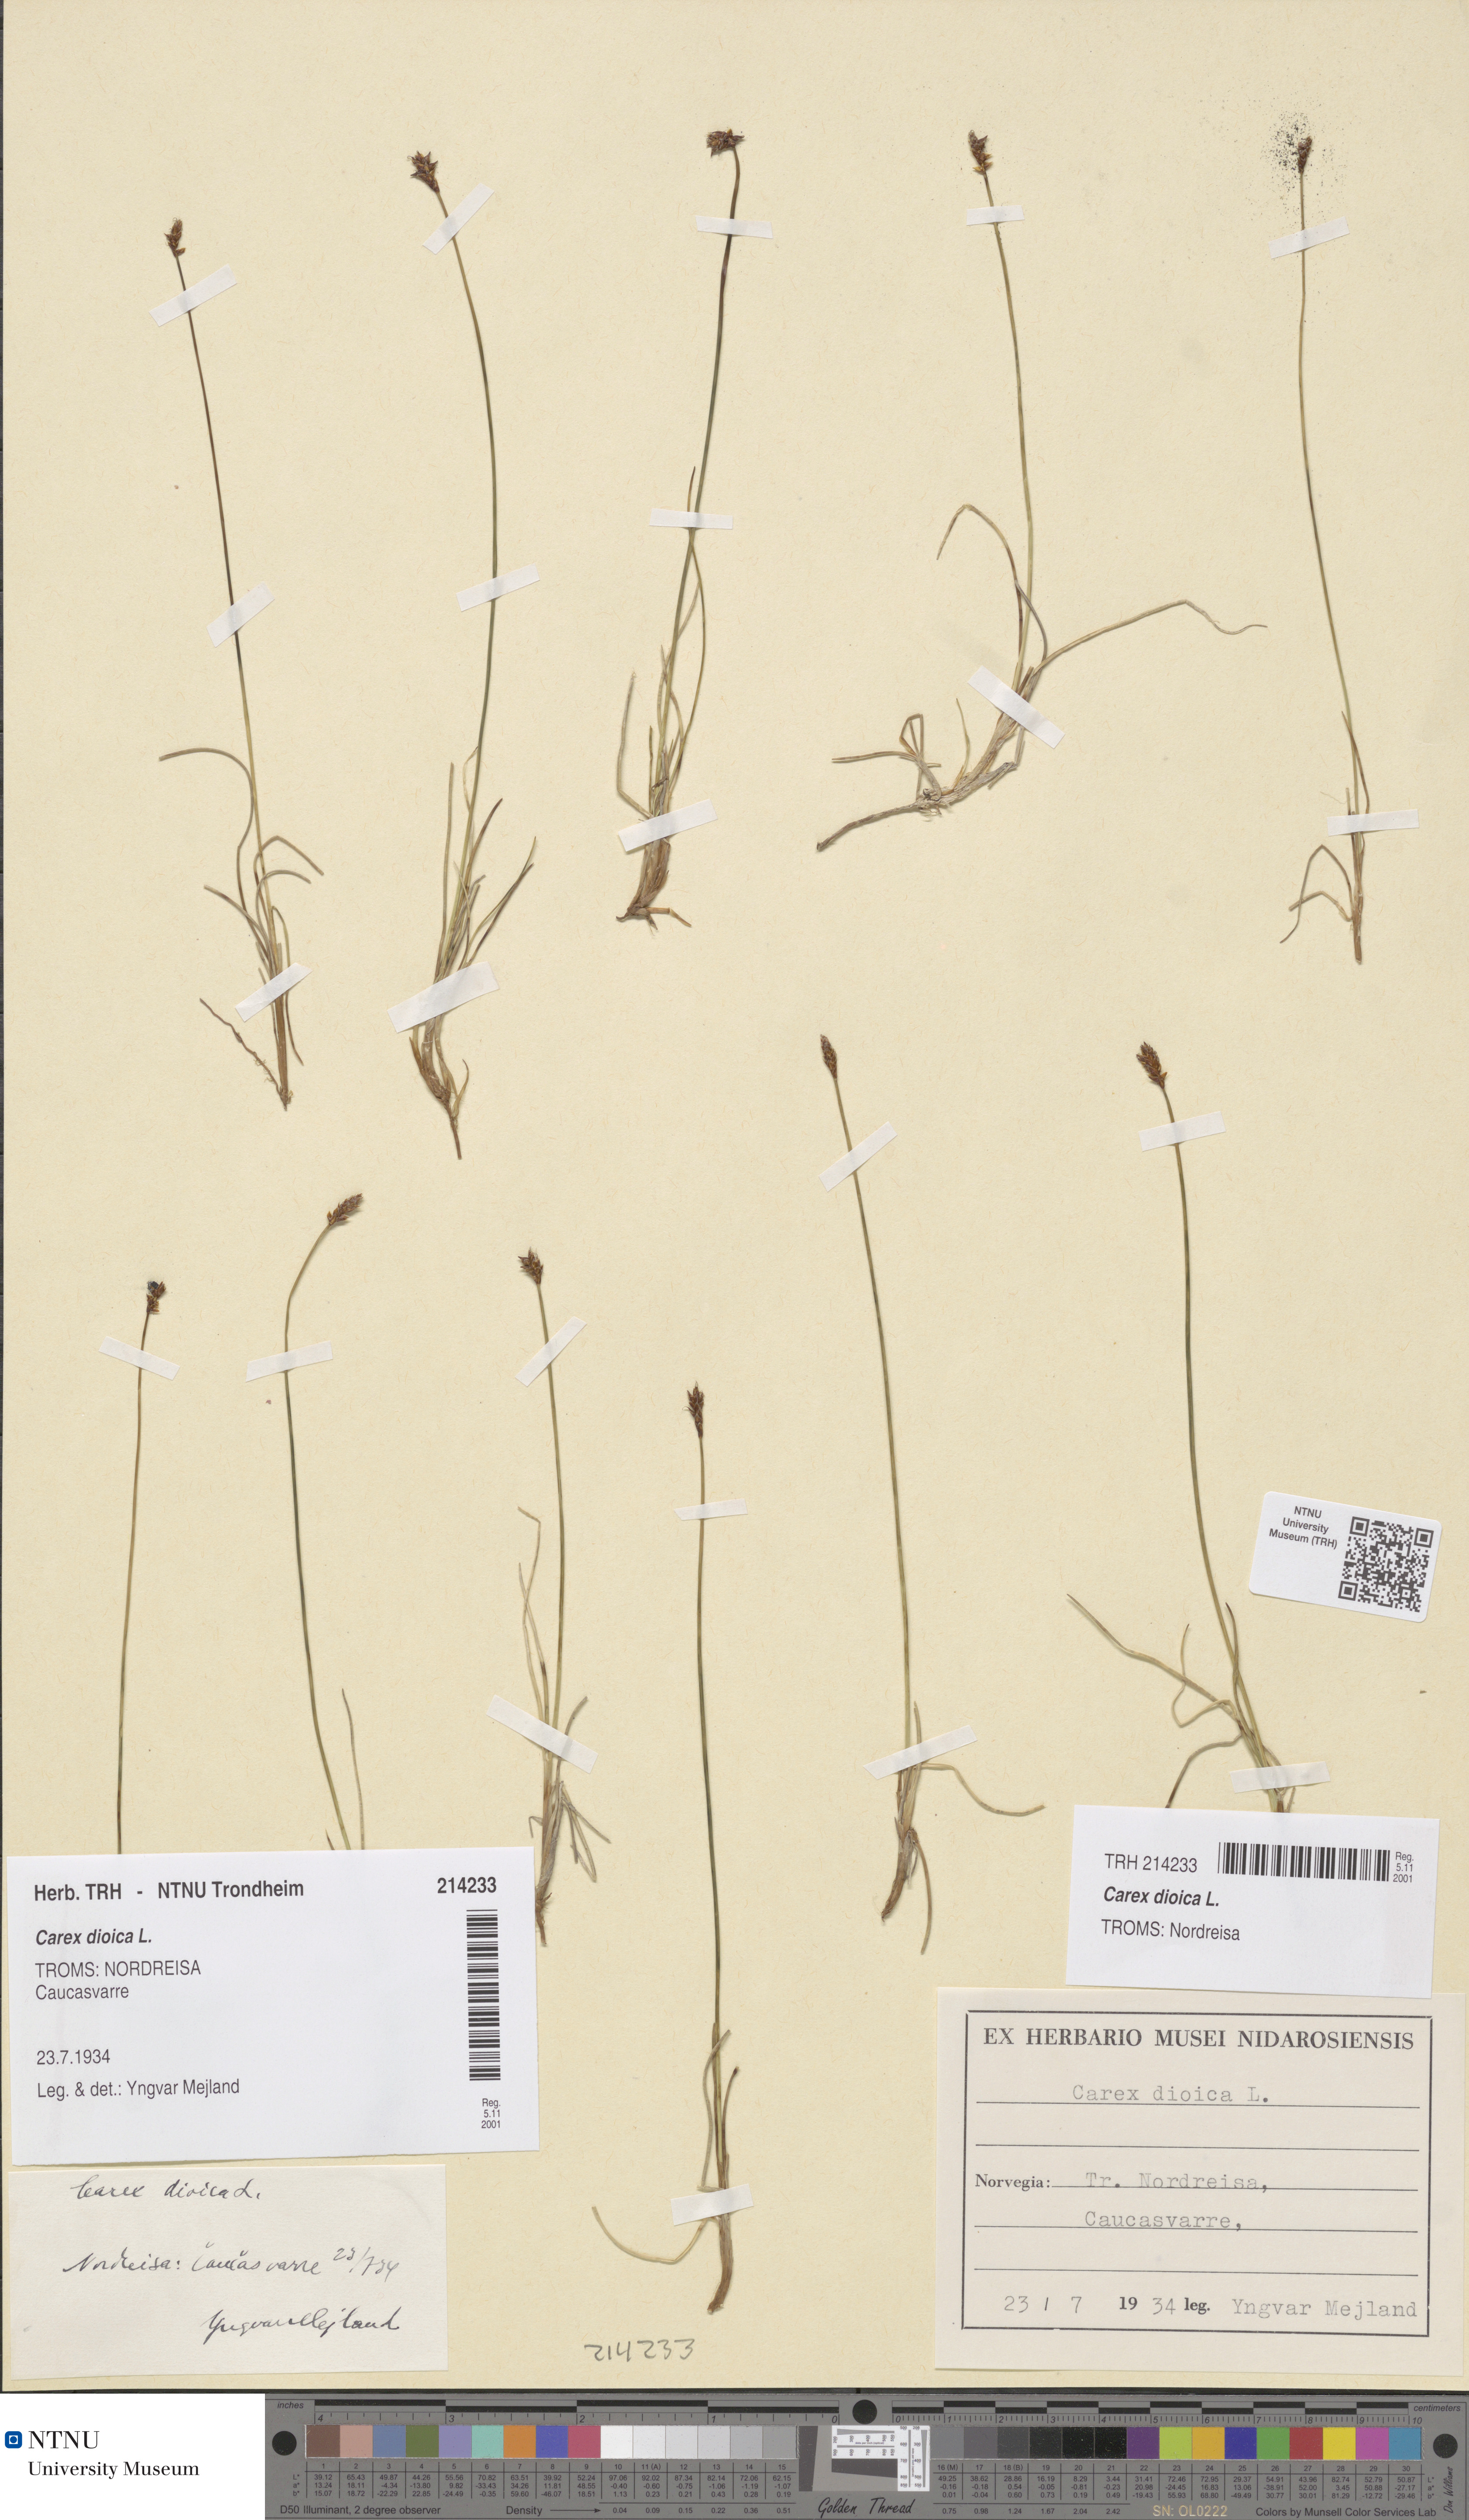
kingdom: Plantae
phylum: Tracheophyta
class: Liliopsida
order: Poales
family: Cyperaceae
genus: Carex
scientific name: Carex dioica
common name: Dioecious sedge
